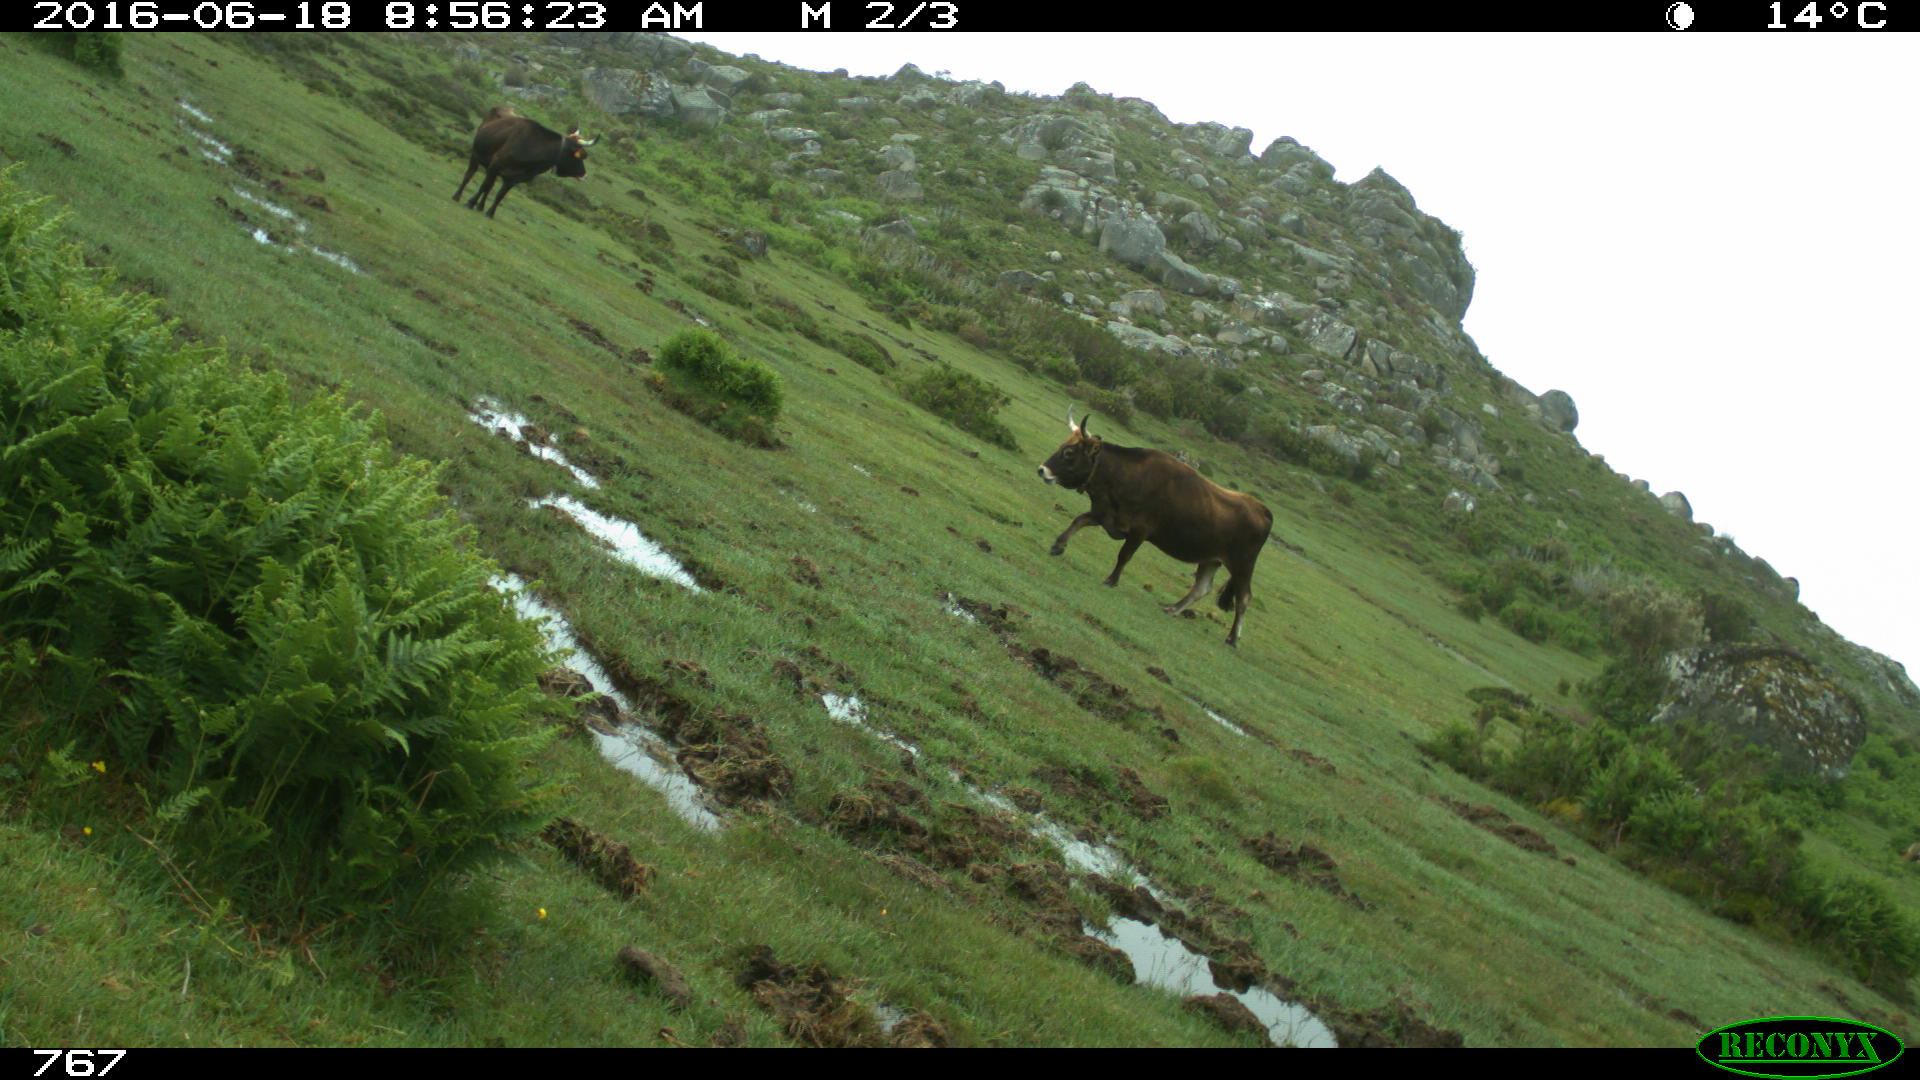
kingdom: Animalia
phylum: Chordata
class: Mammalia
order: Artiodactyla
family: Bovidae
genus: Bos
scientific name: Bos taurus
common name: Domesticated cattle
